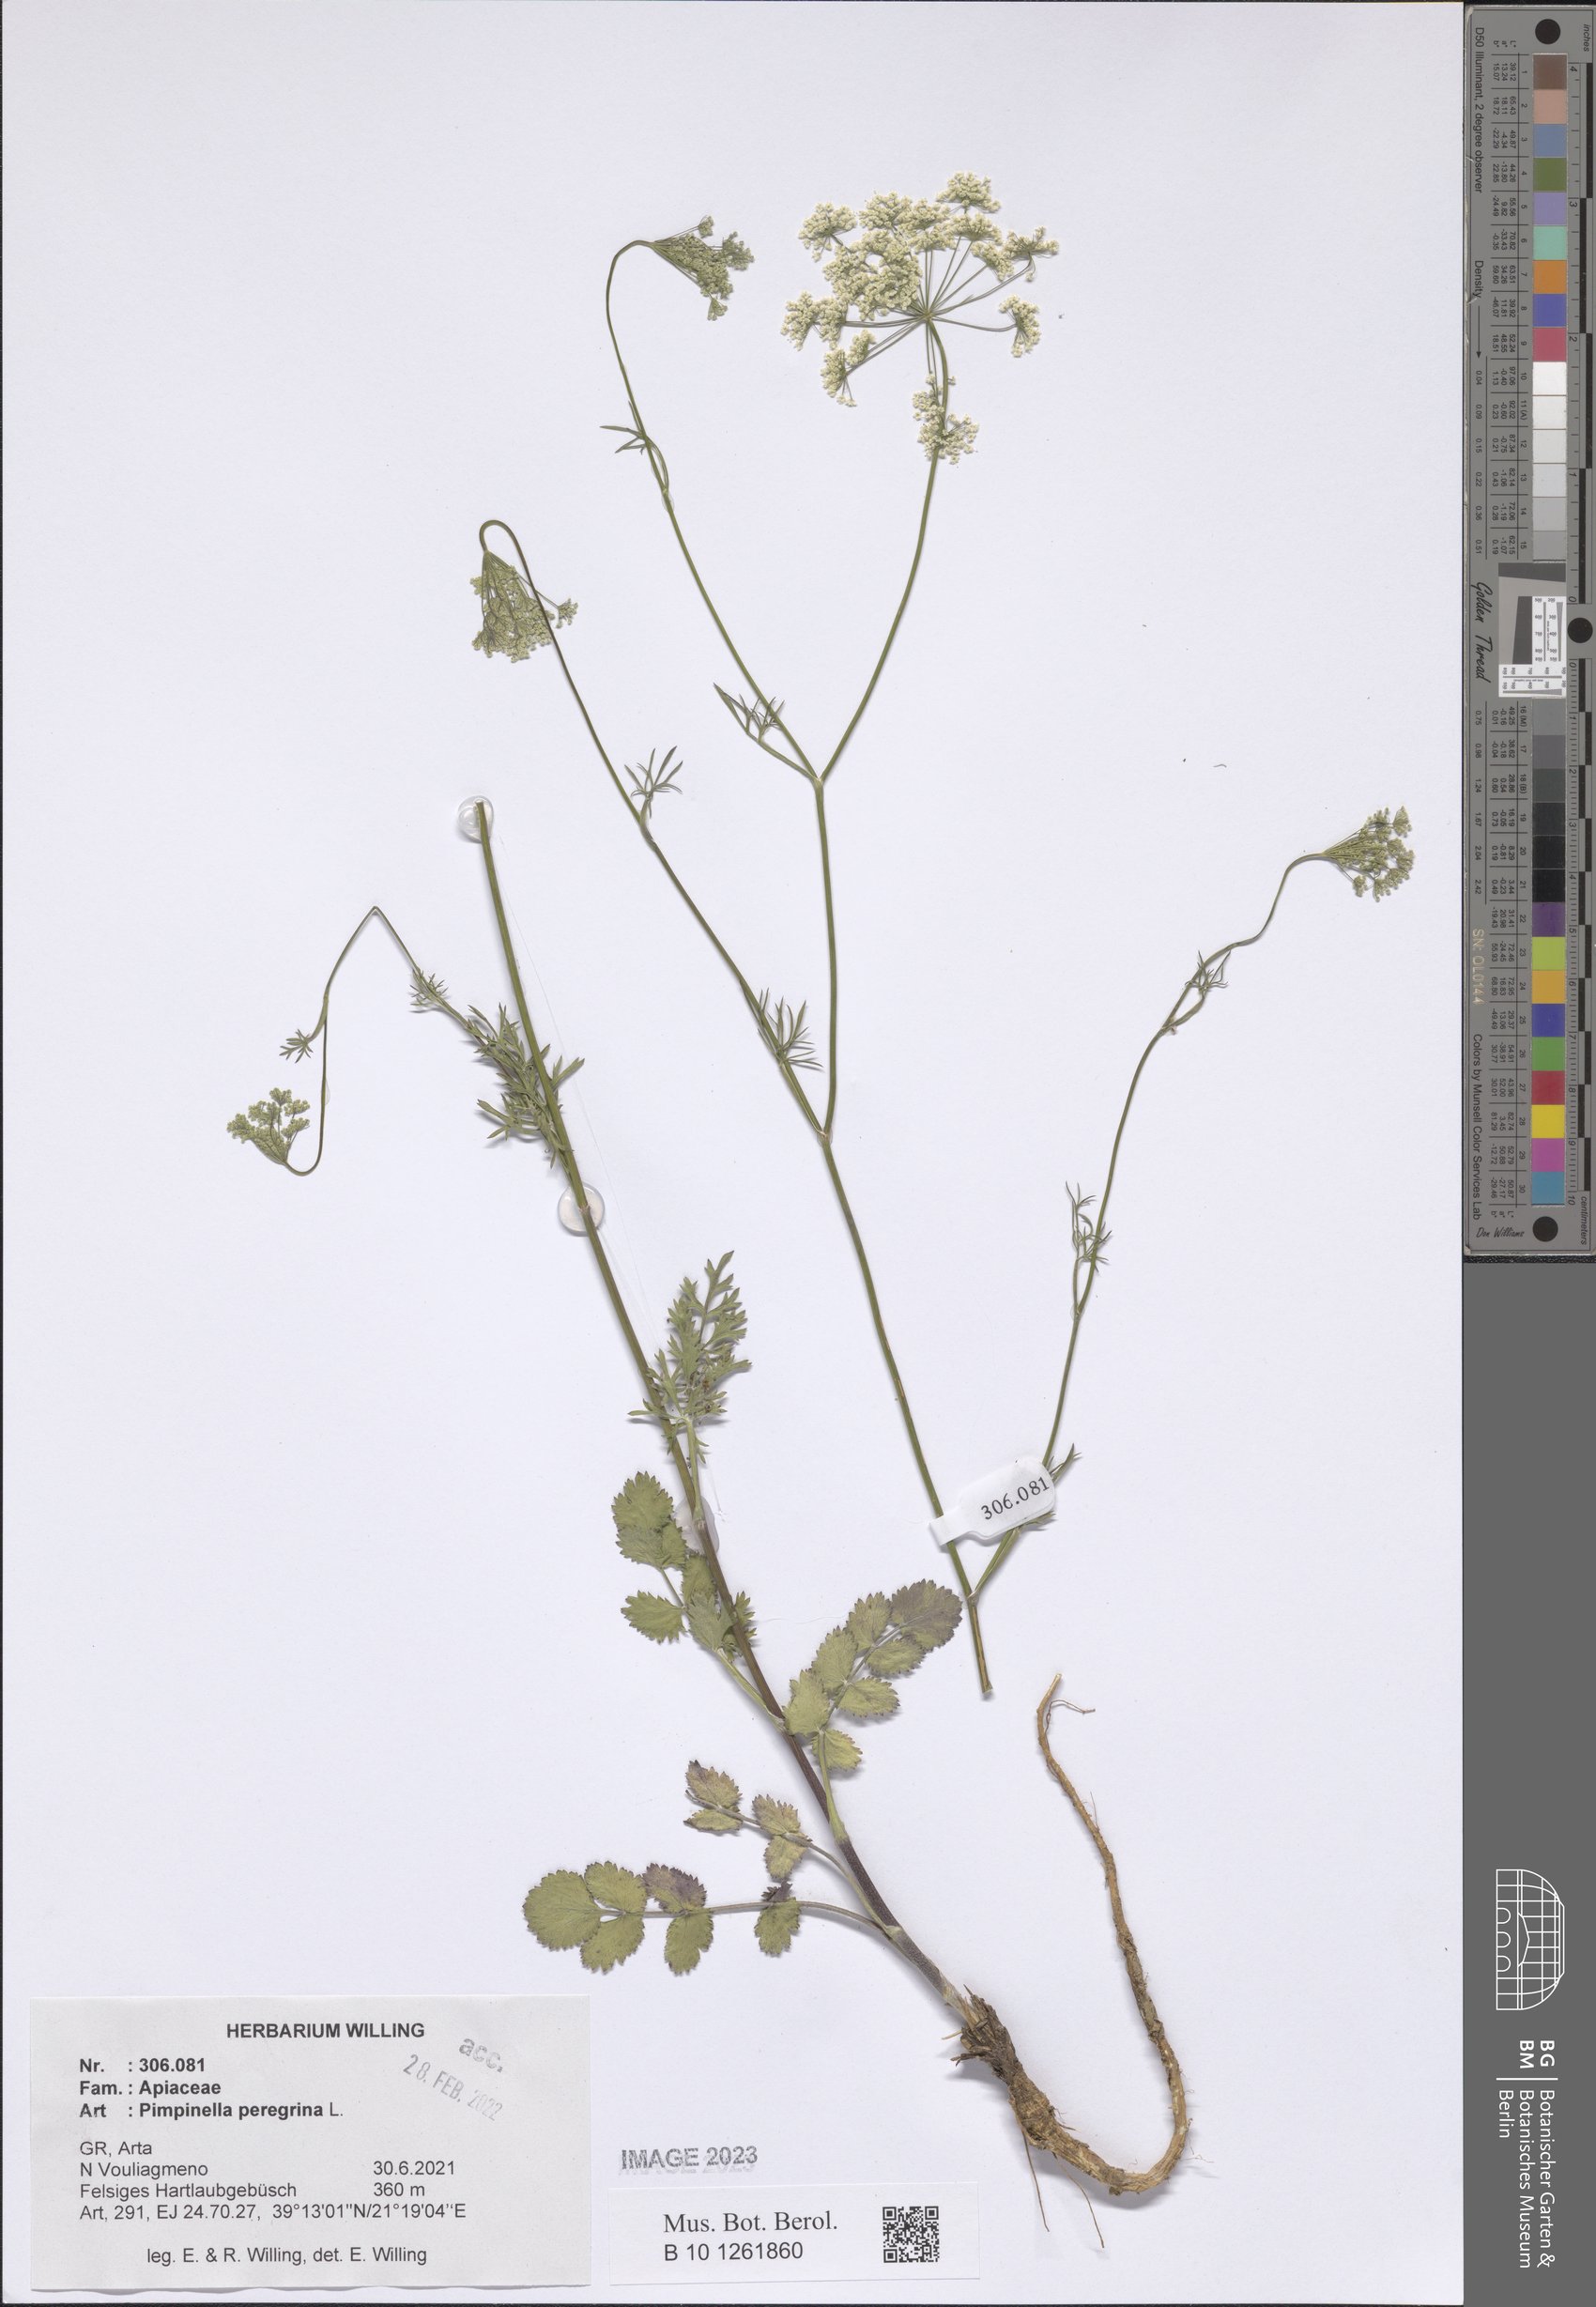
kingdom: Plantae
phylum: Tracheophyta
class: Magnoliopsida
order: Apiales
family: Apiaceae
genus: Pimpinella
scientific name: Pimpinella peregrina
